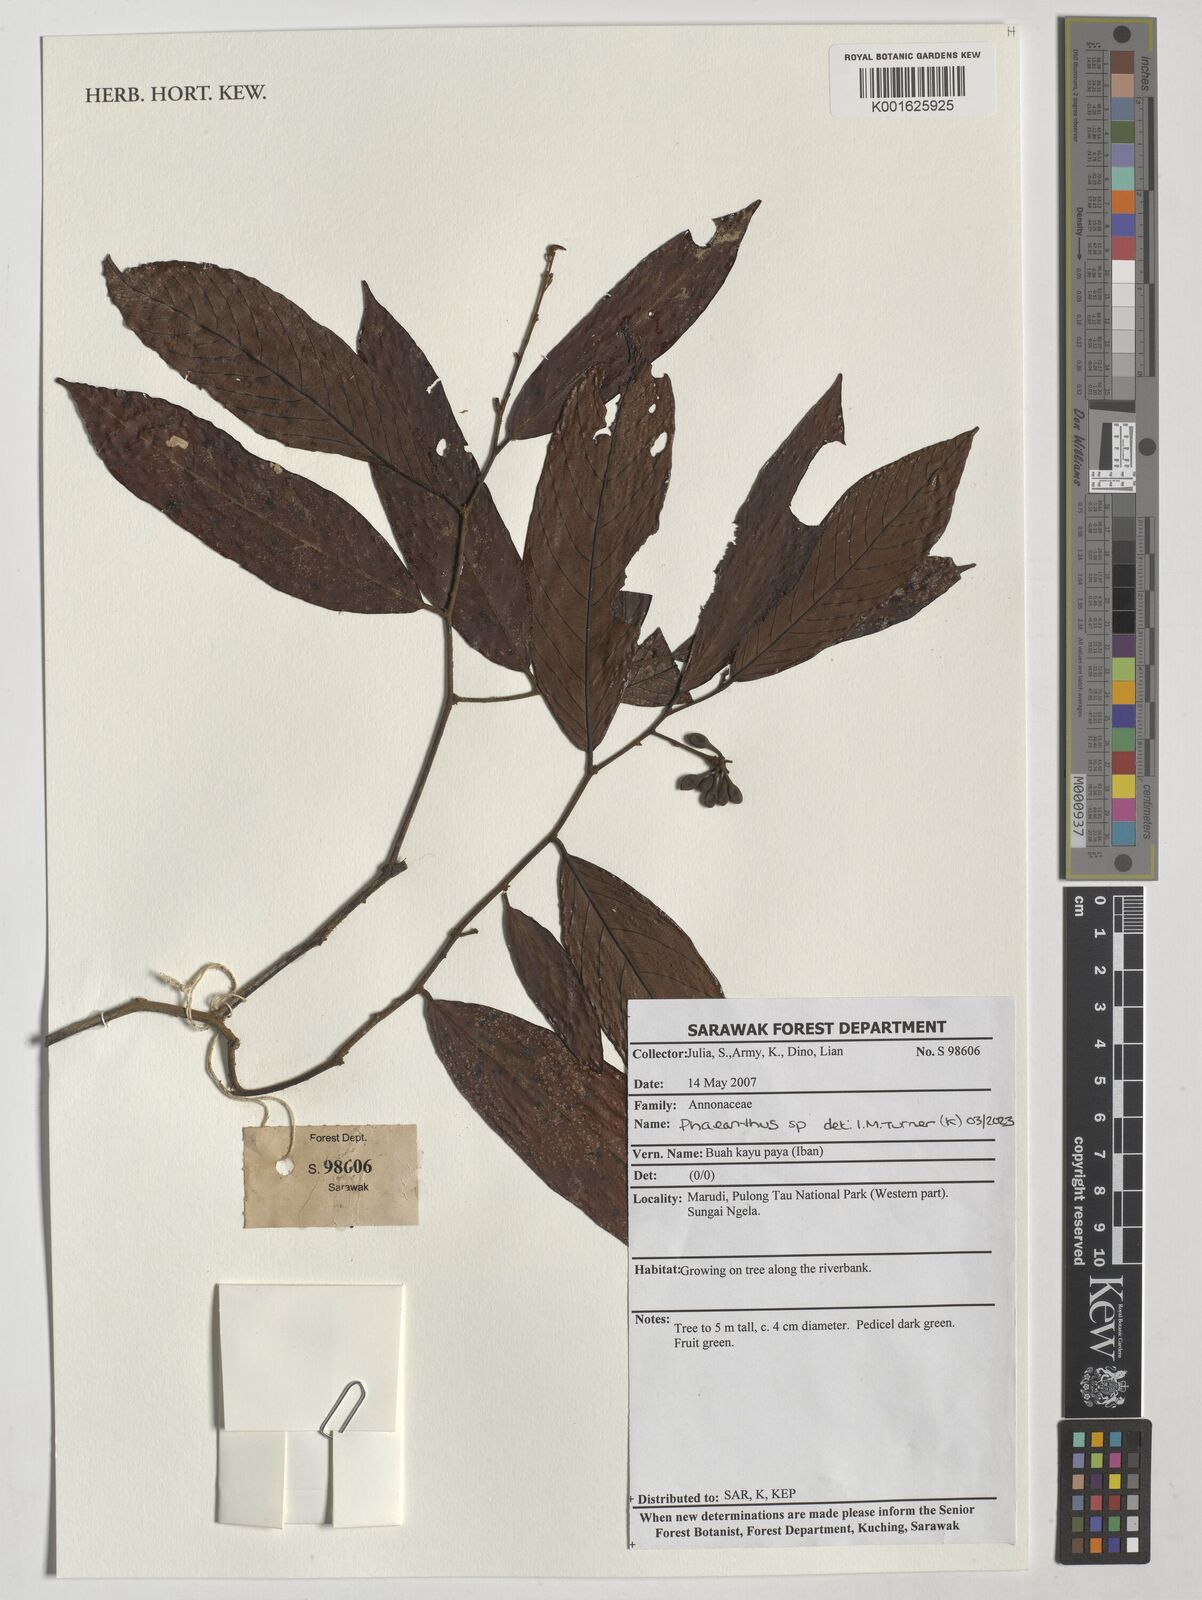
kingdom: Plantae
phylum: Tracheophyta
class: Magnoliopsida
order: Magnoliales
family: Annonaceae
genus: Phaeanthus
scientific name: Phaeanthus
